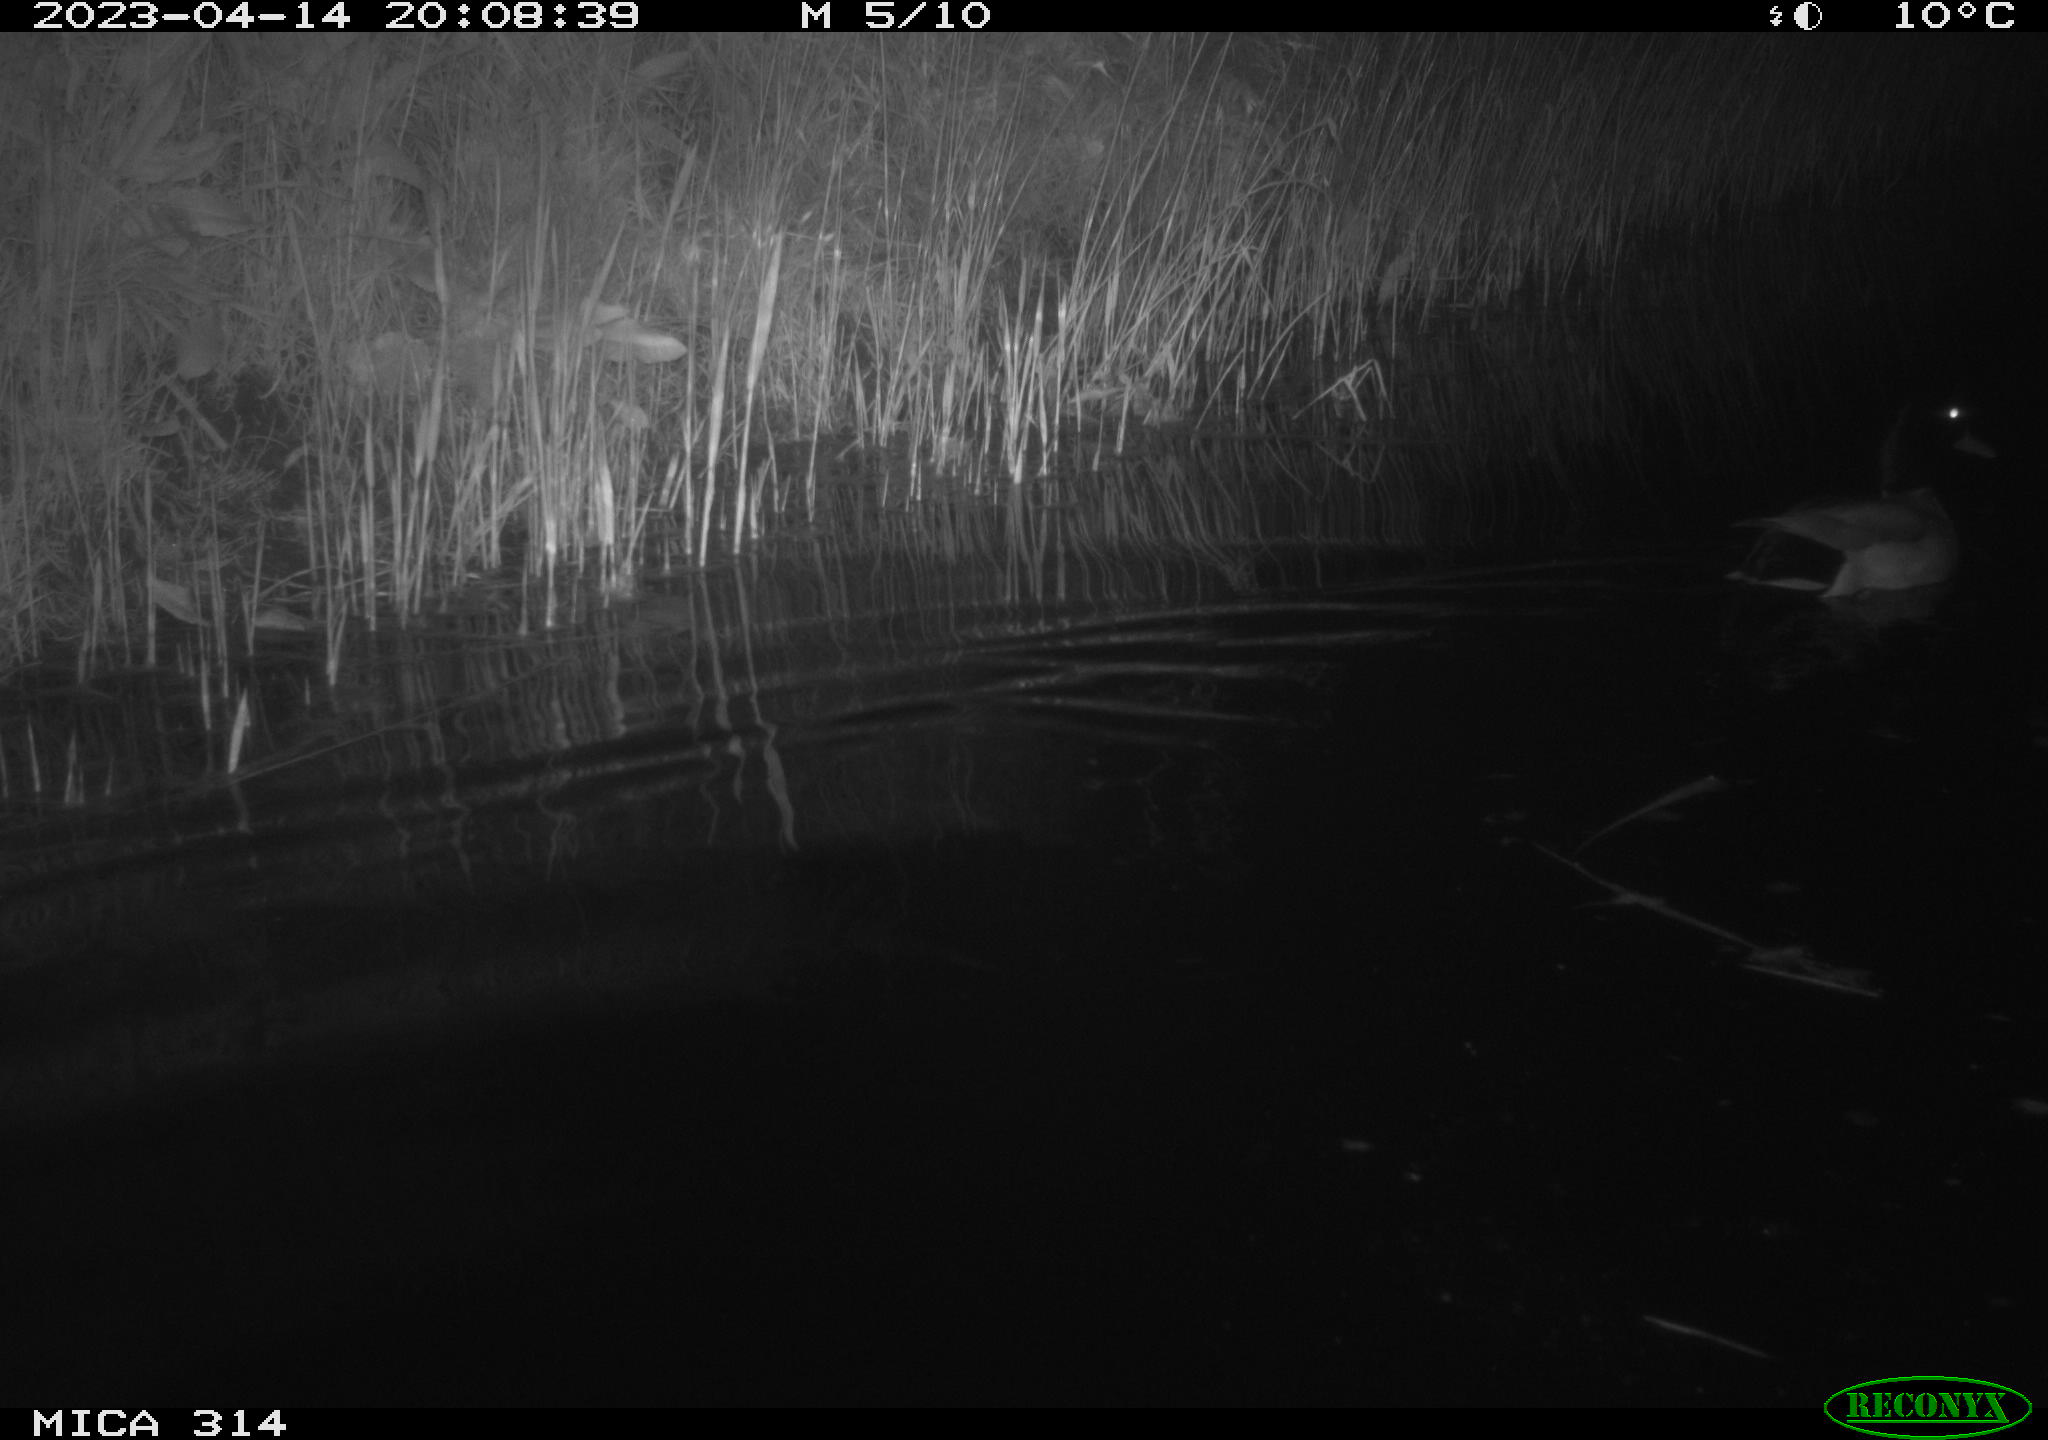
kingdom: Animalia
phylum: Chordata
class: Aves
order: Anseriformes
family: Anatidae
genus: Anas
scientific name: Anas
